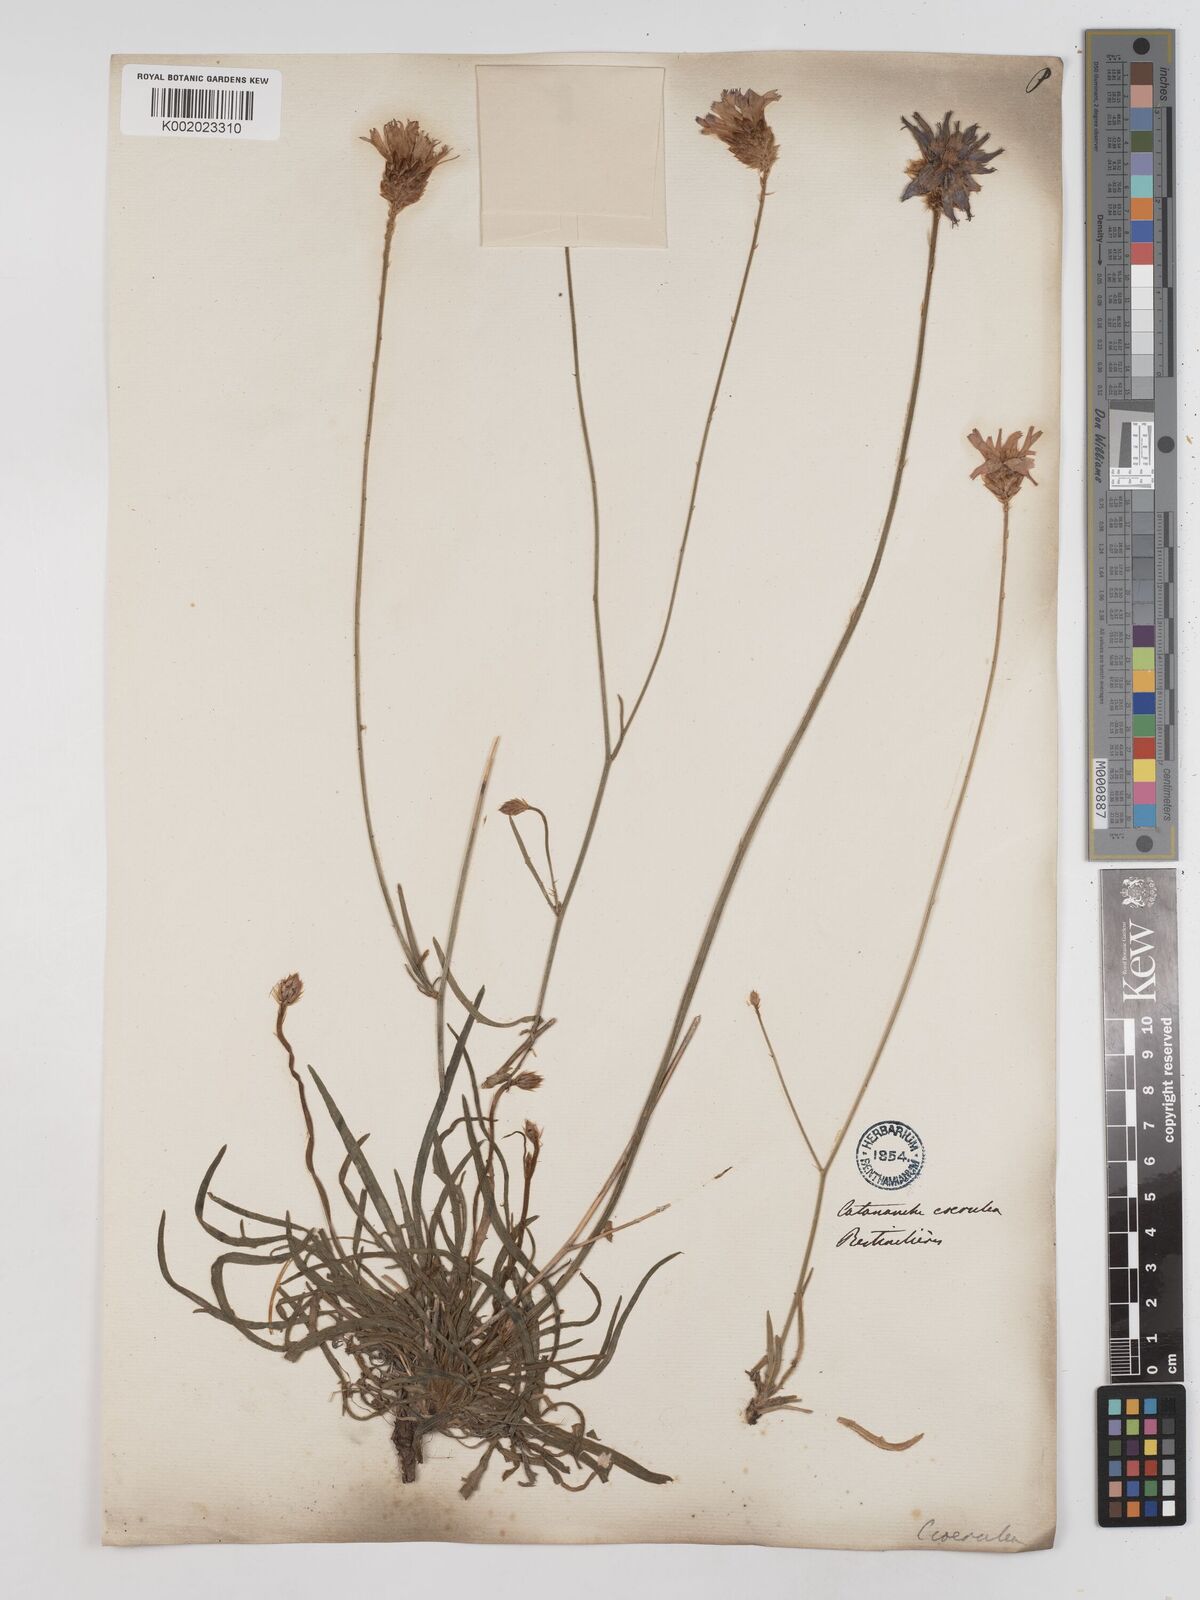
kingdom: Plantae
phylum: Tracheophyta
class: Magnoliopsida
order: Asterales
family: Asteraceae
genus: Catananche
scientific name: Catananche caerulea
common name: Blue cupidone
